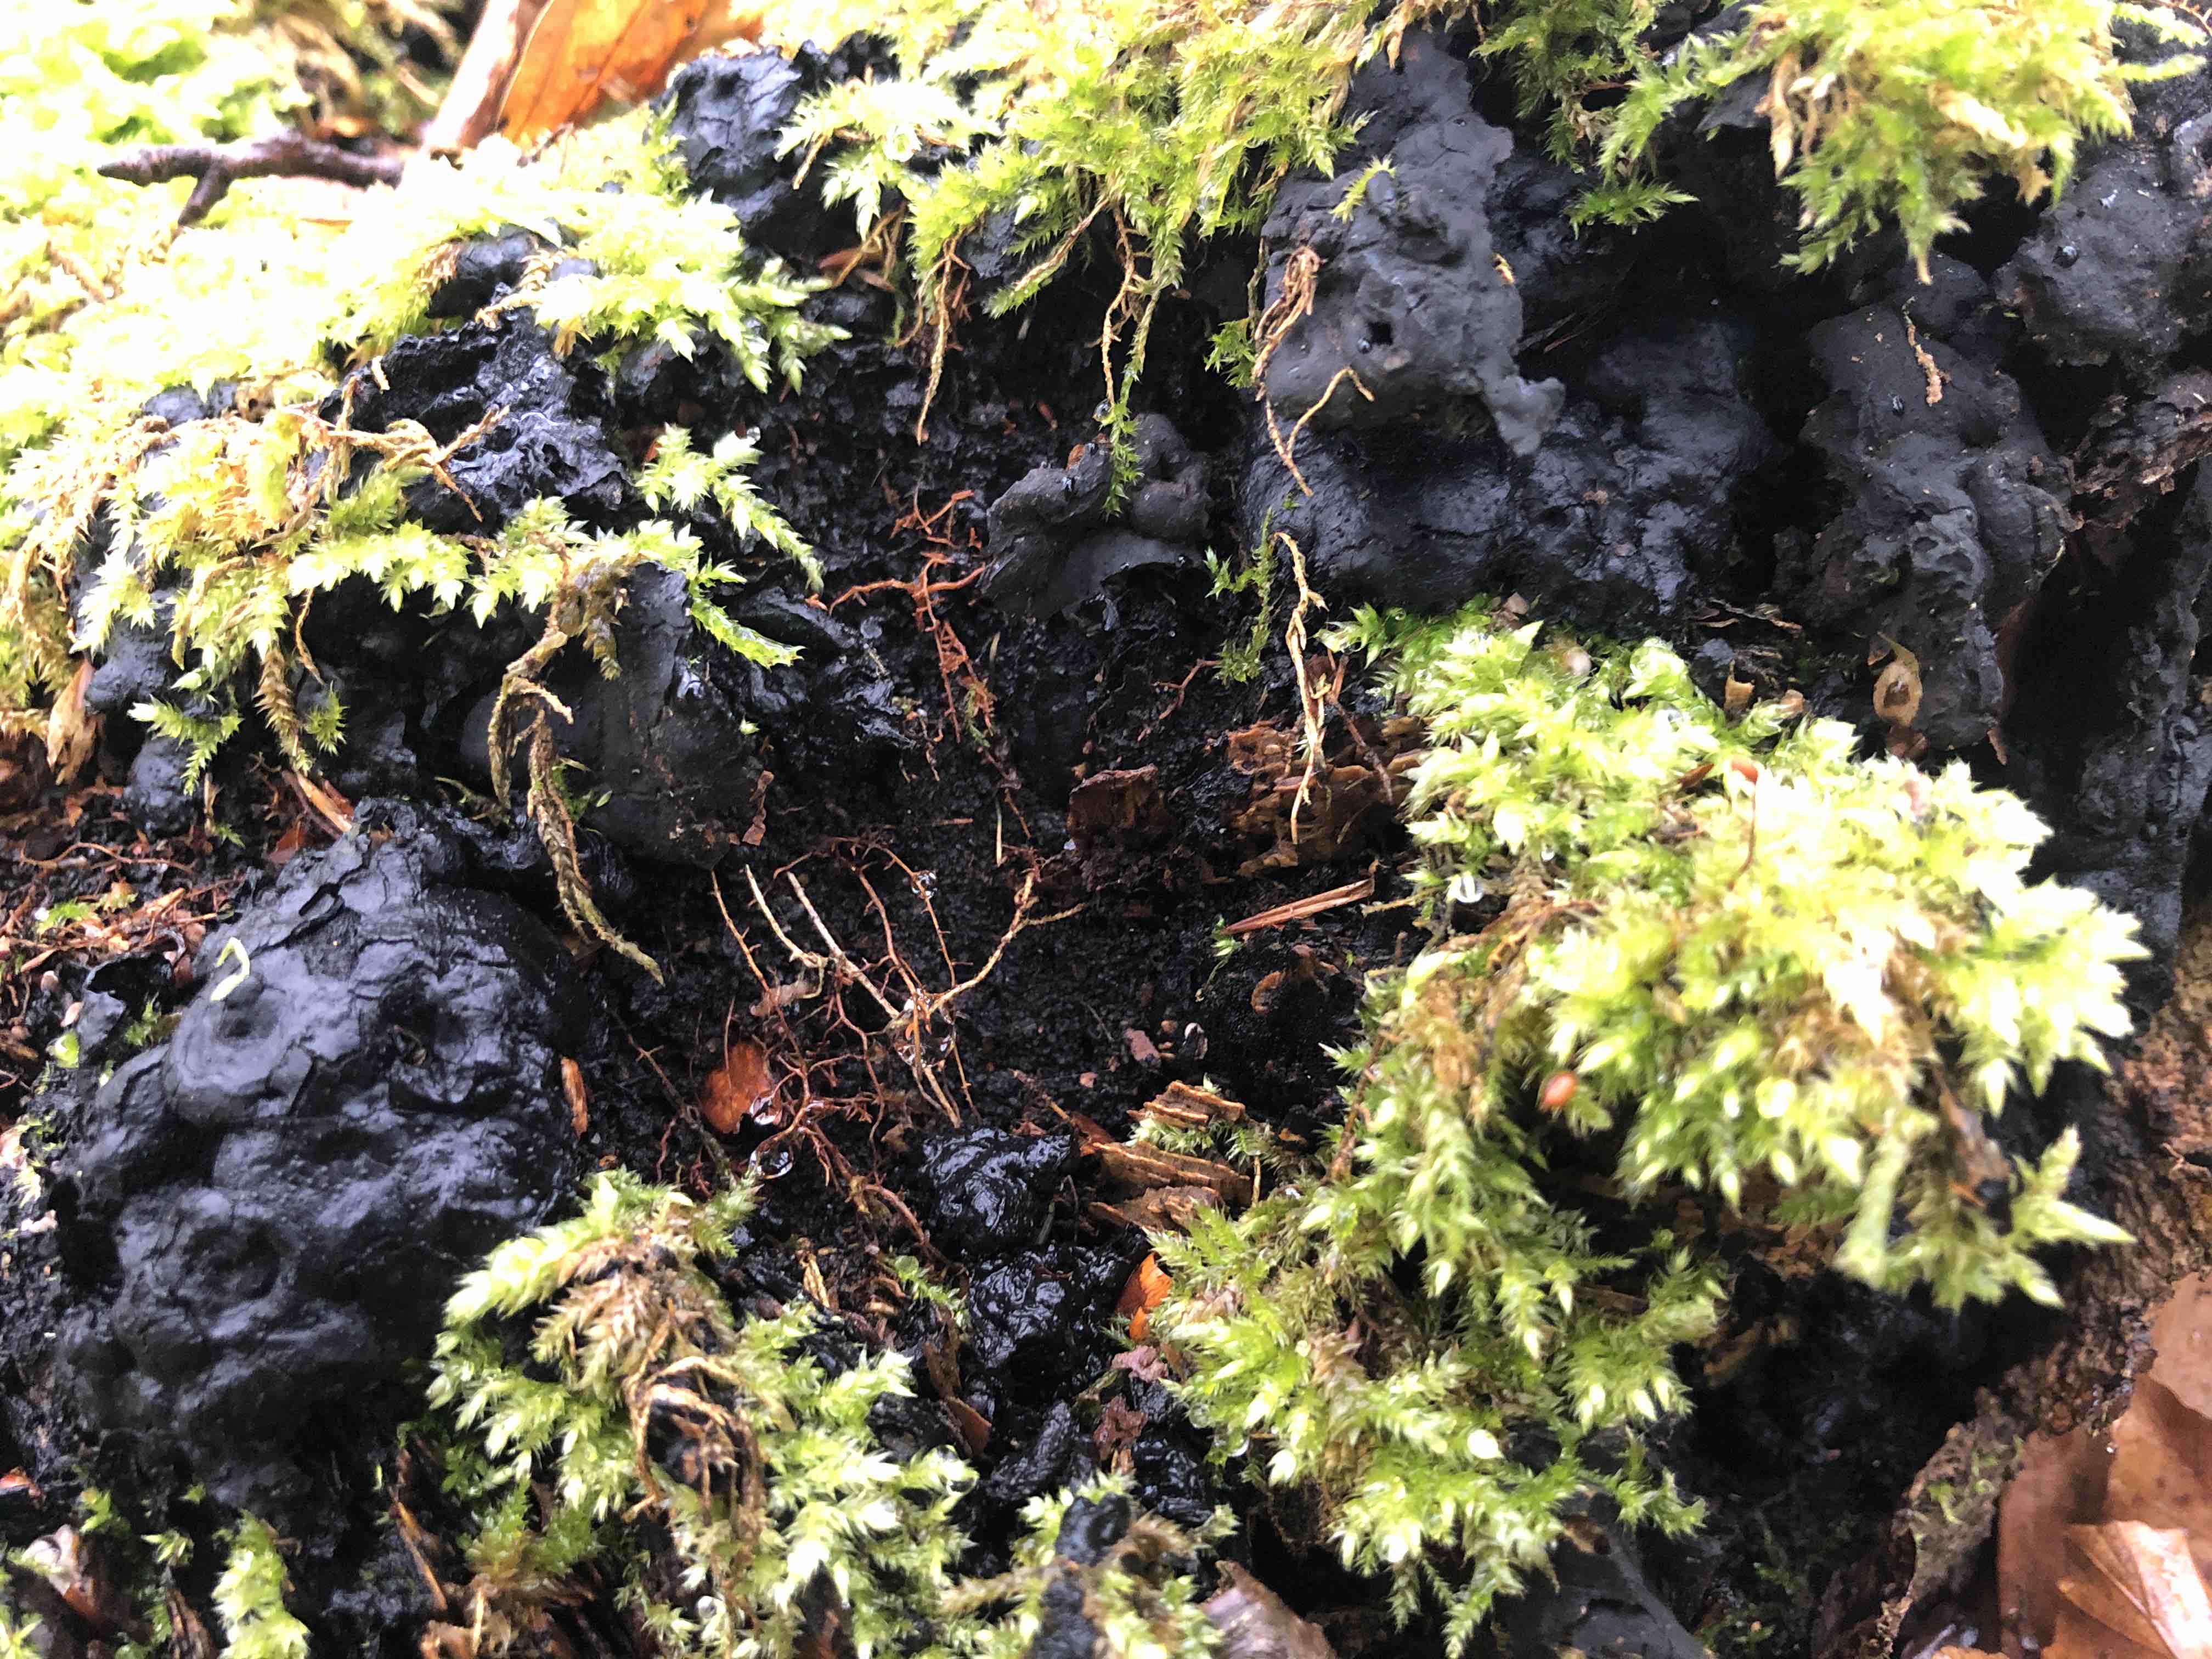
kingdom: Fungi
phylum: Ascomycota
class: Sordariomycetes
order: Xylariales
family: Xylariaceae
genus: Kretzschmaria
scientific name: Kretzschmaria deusta
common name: stor kulsvamp
